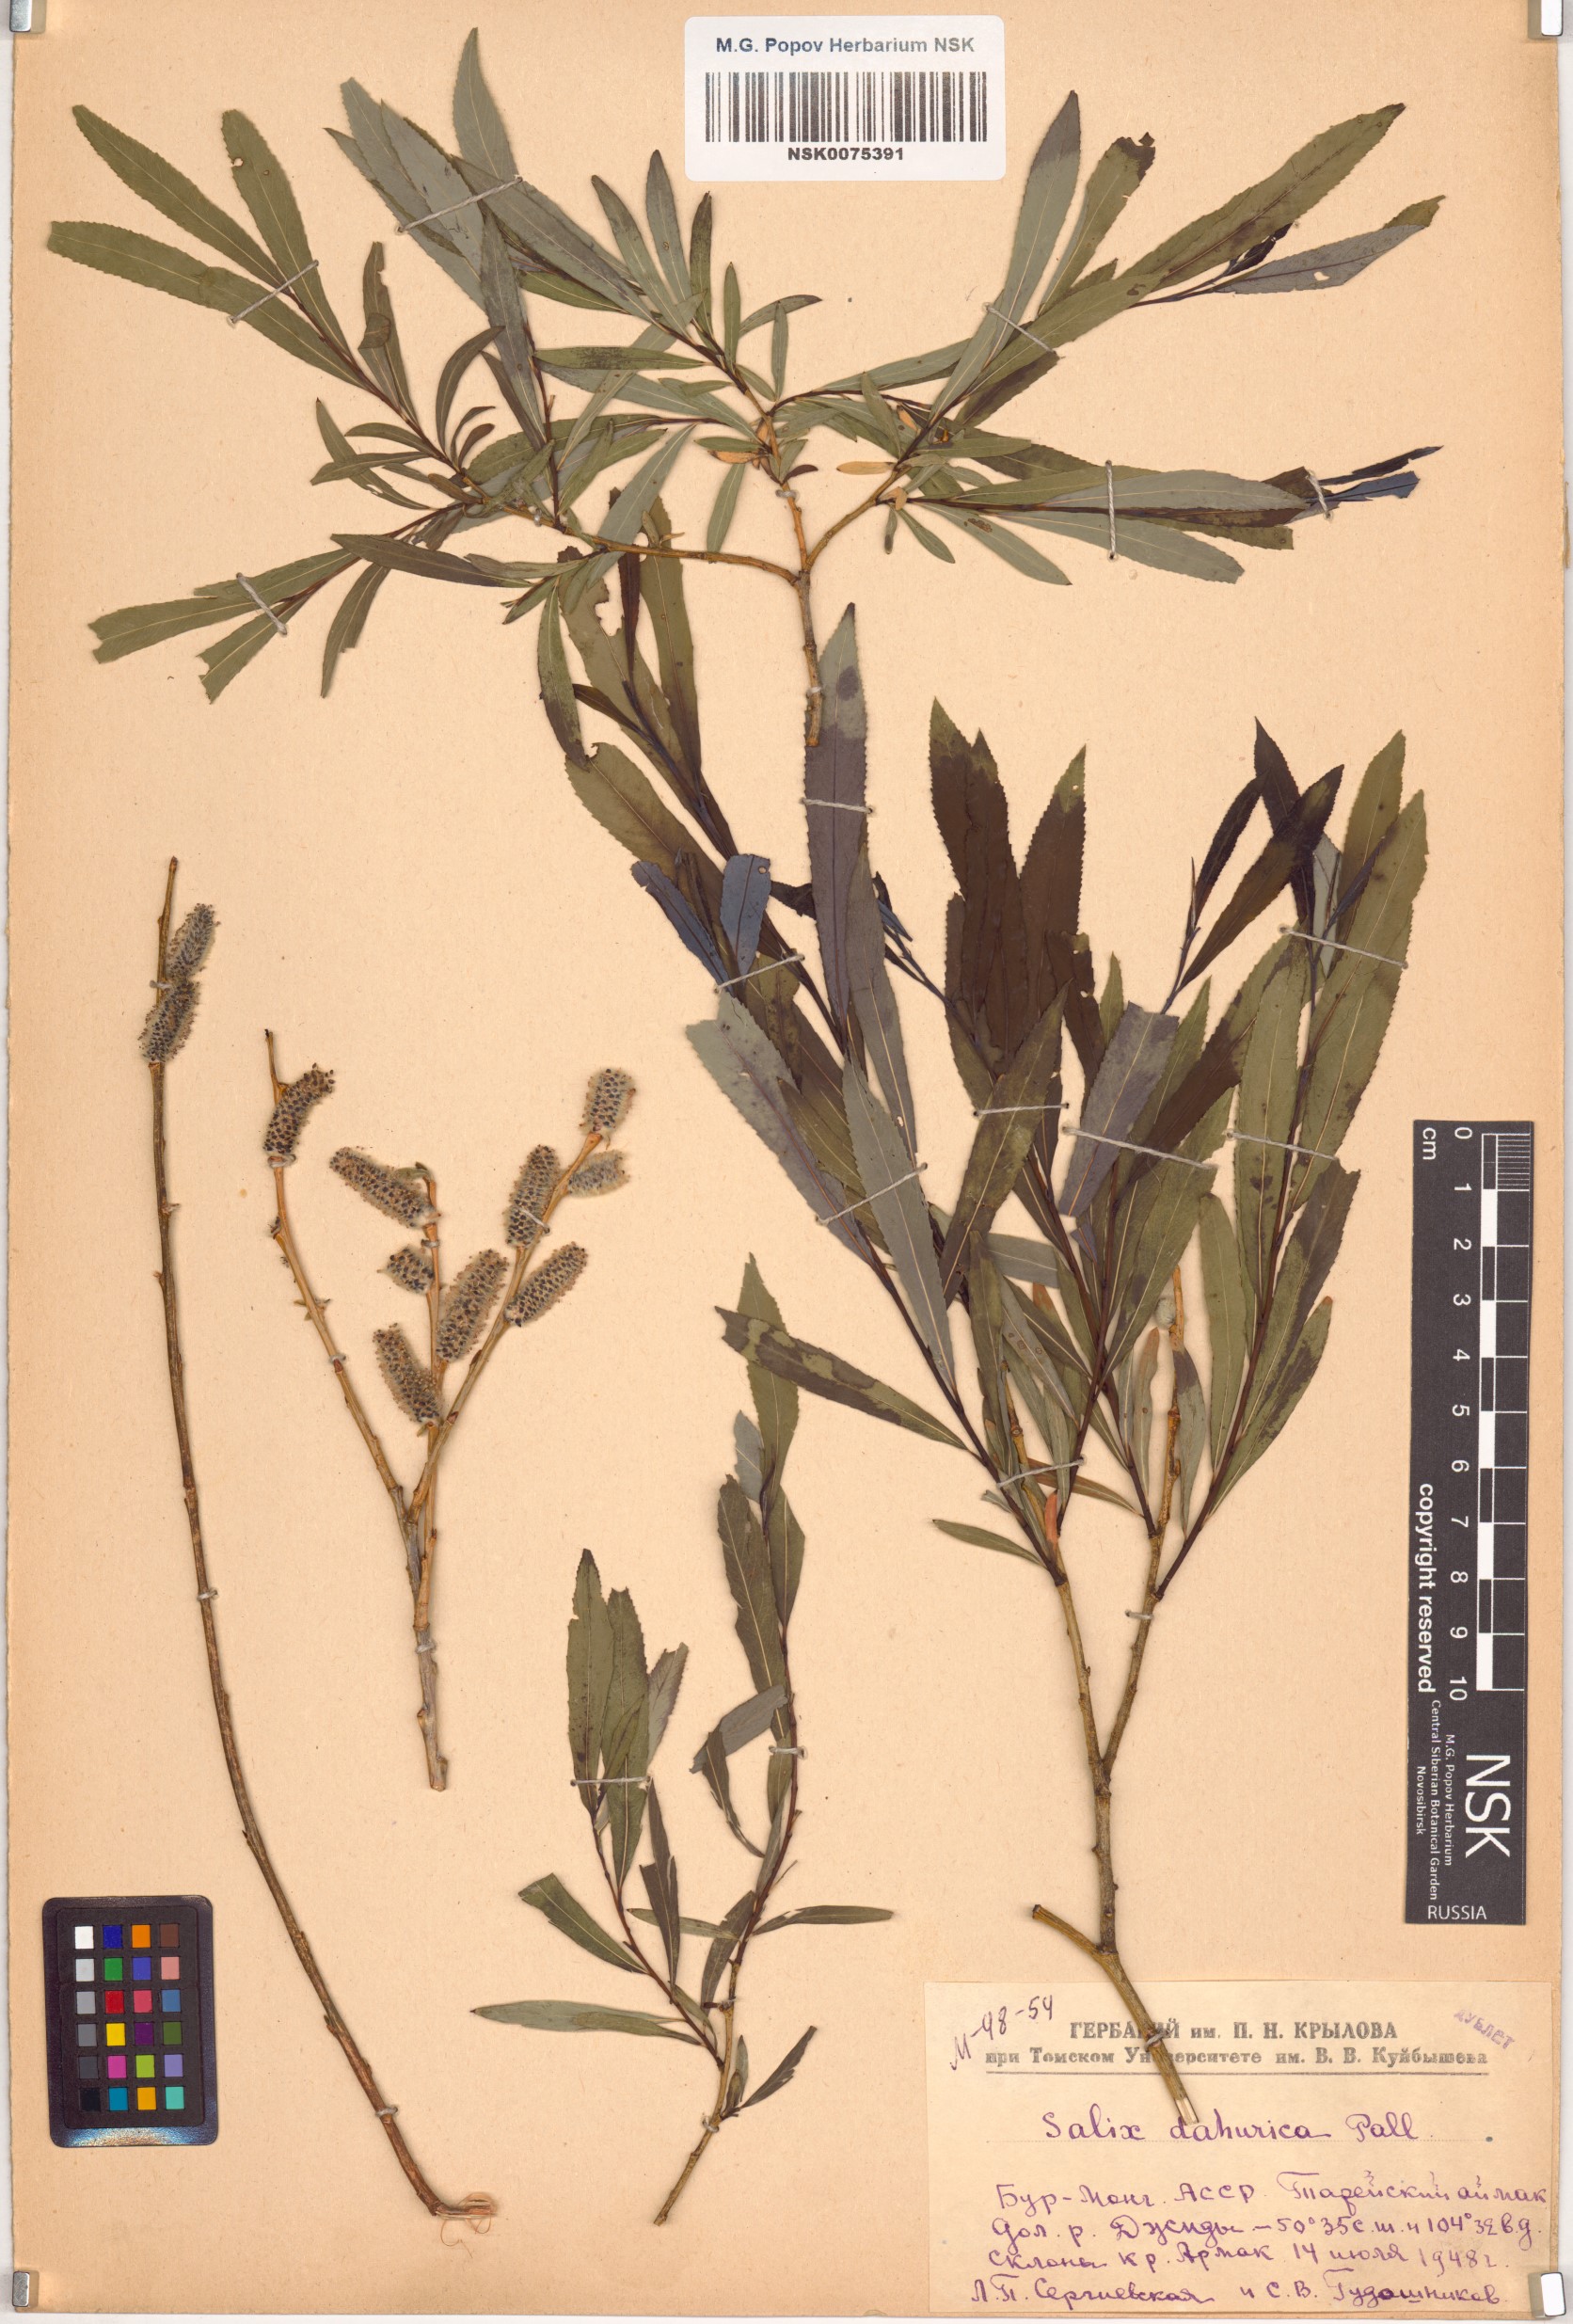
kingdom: Plantae
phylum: Tracheophyta
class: Magnoliopsida
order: Malpighiales
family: Salicaceae
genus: Salix
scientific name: Salix
